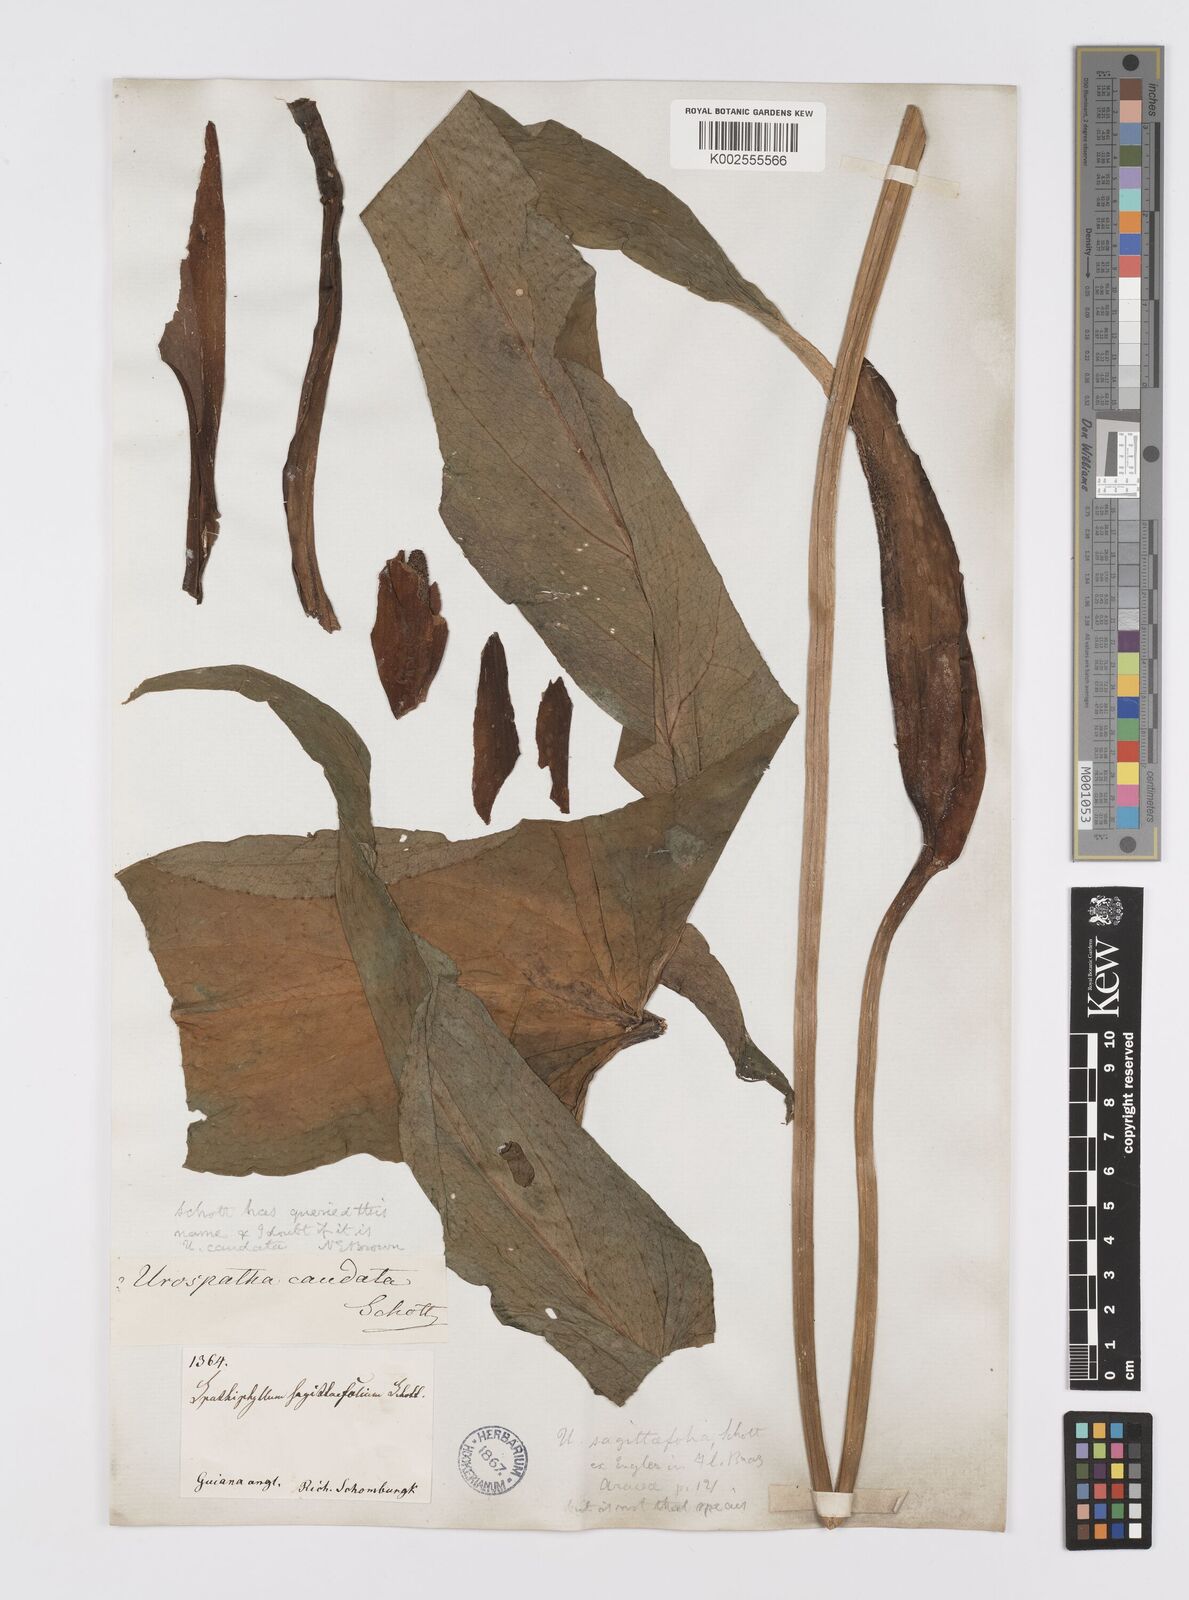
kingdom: Plantae
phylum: Tracheophyta
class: Liliopsida
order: Alismatales
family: Araceae
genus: Urospatha
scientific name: Urospatha sagittifolia
